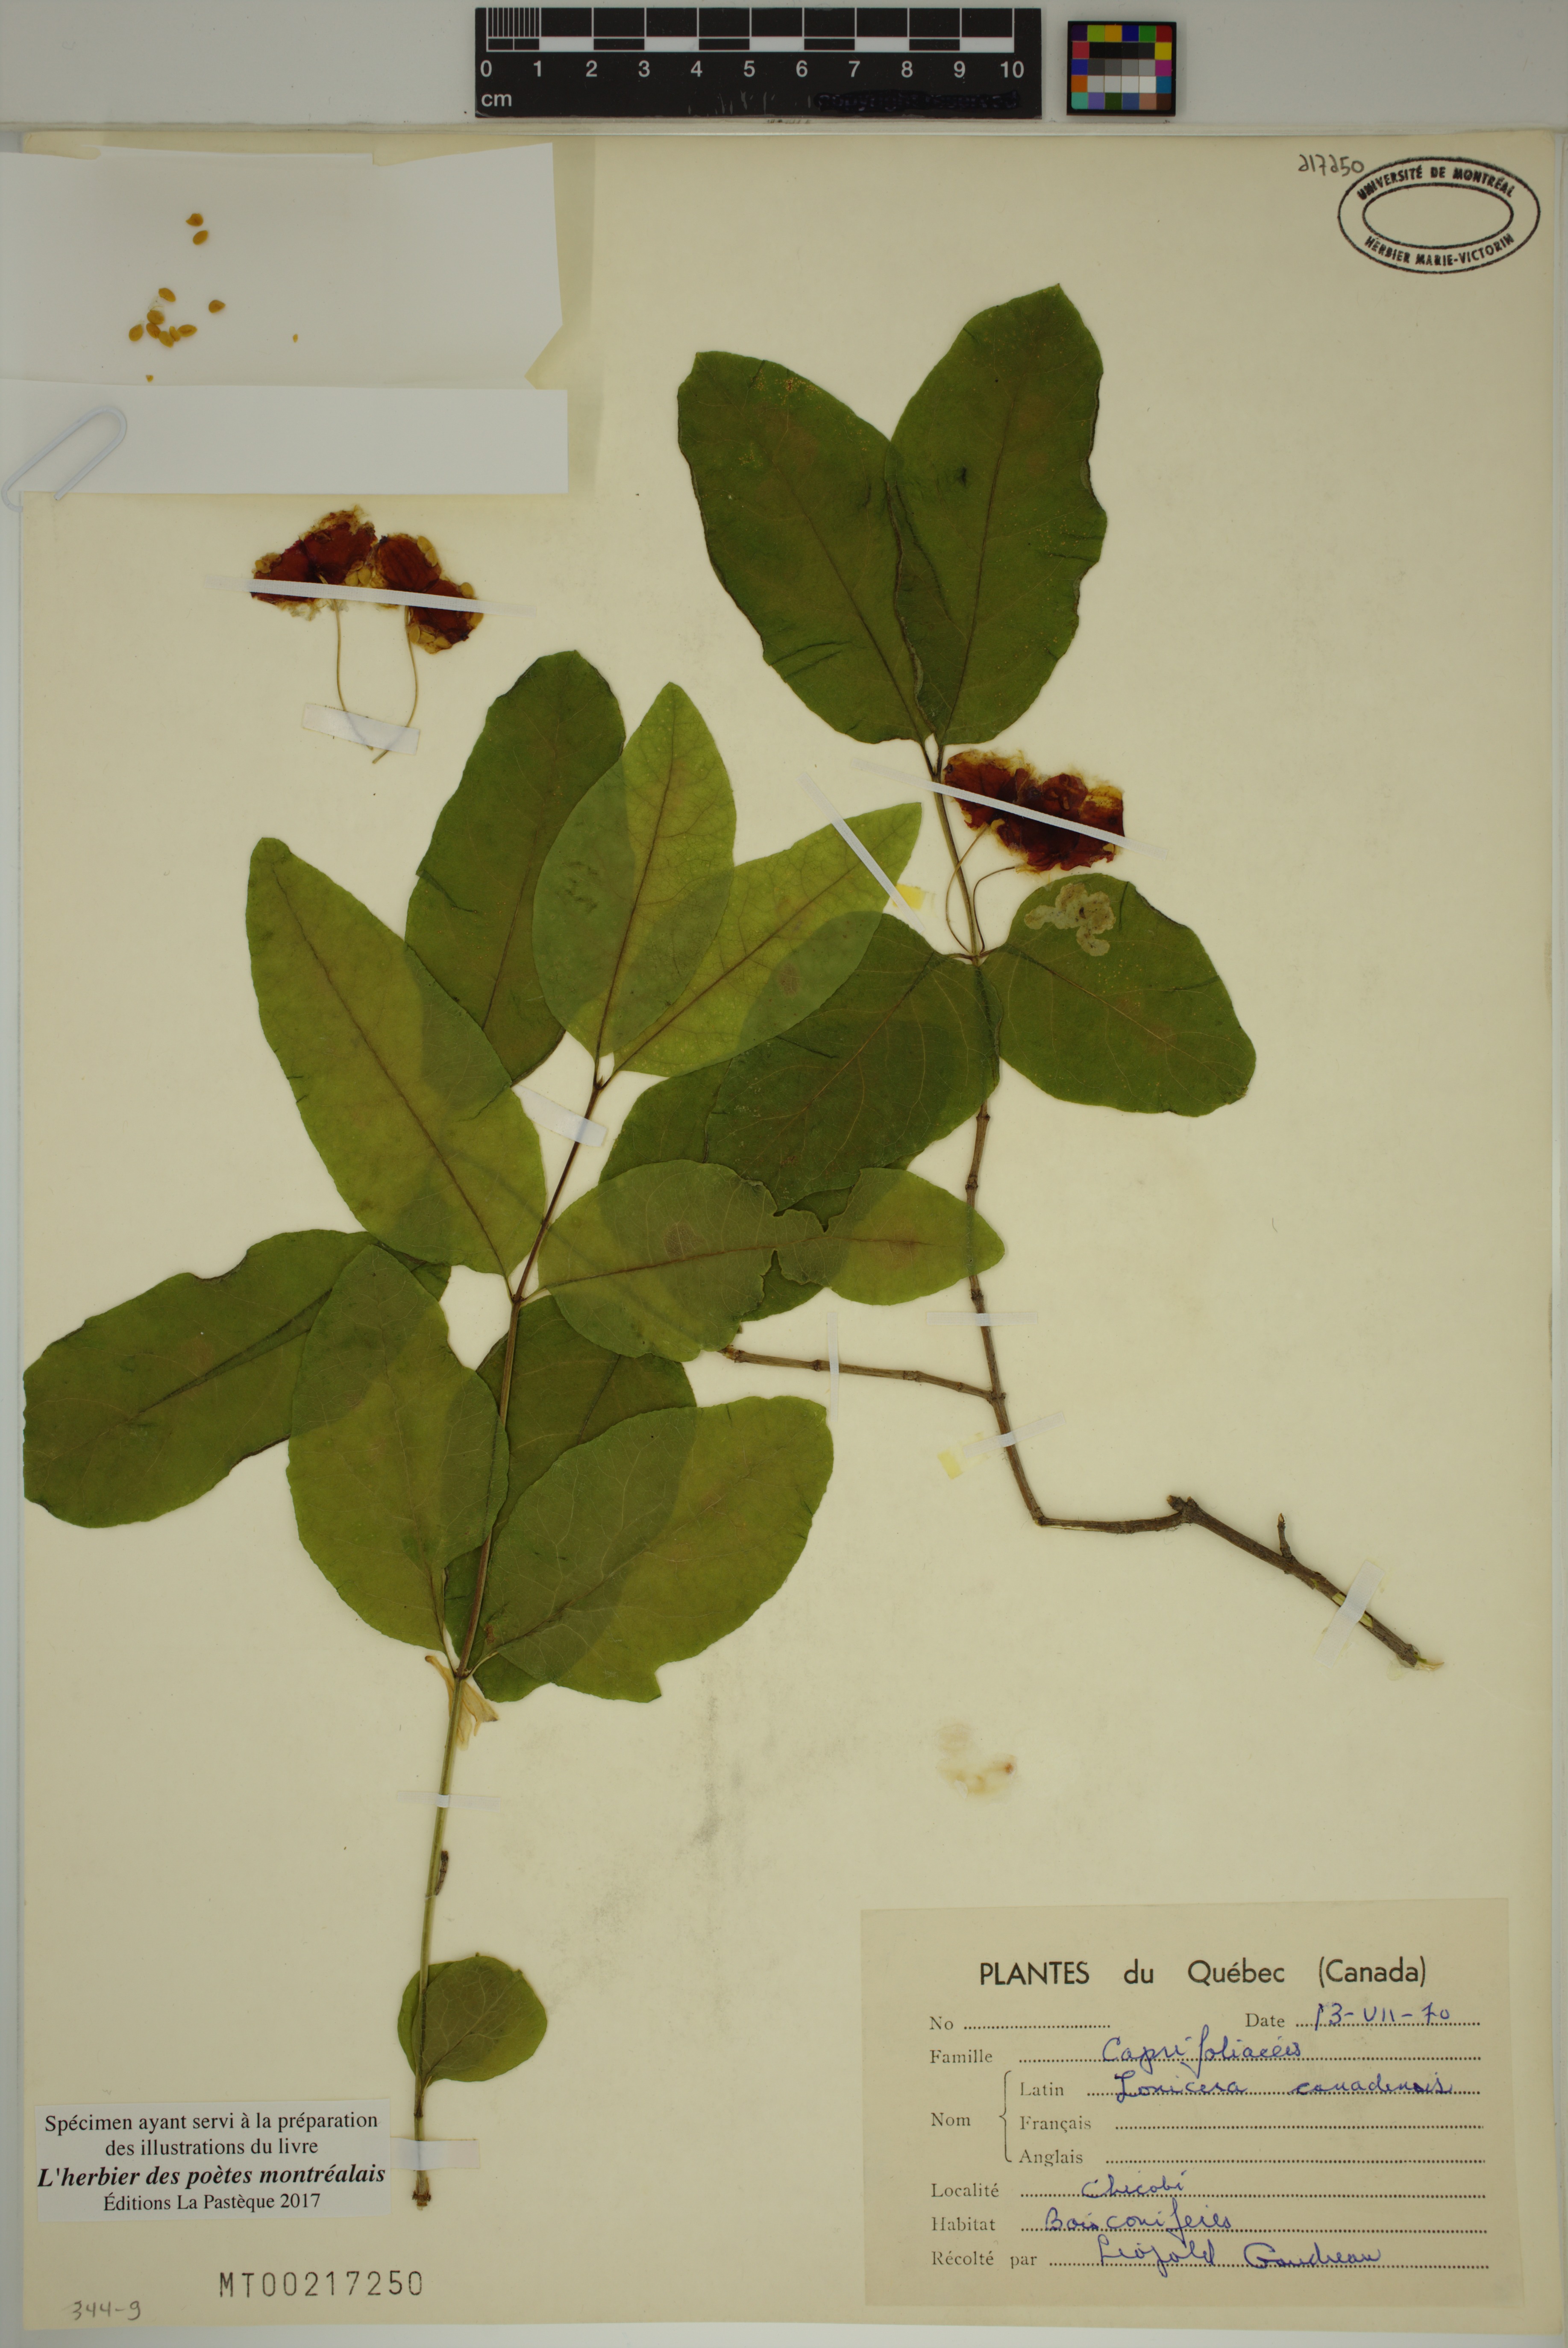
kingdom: Plantae
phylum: Tracheophyta
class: Magnoliopsida
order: Dipsacales
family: Caprifoliaceae
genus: Lonicera
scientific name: Lonicera canadensis
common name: American fly-honeysuckle
